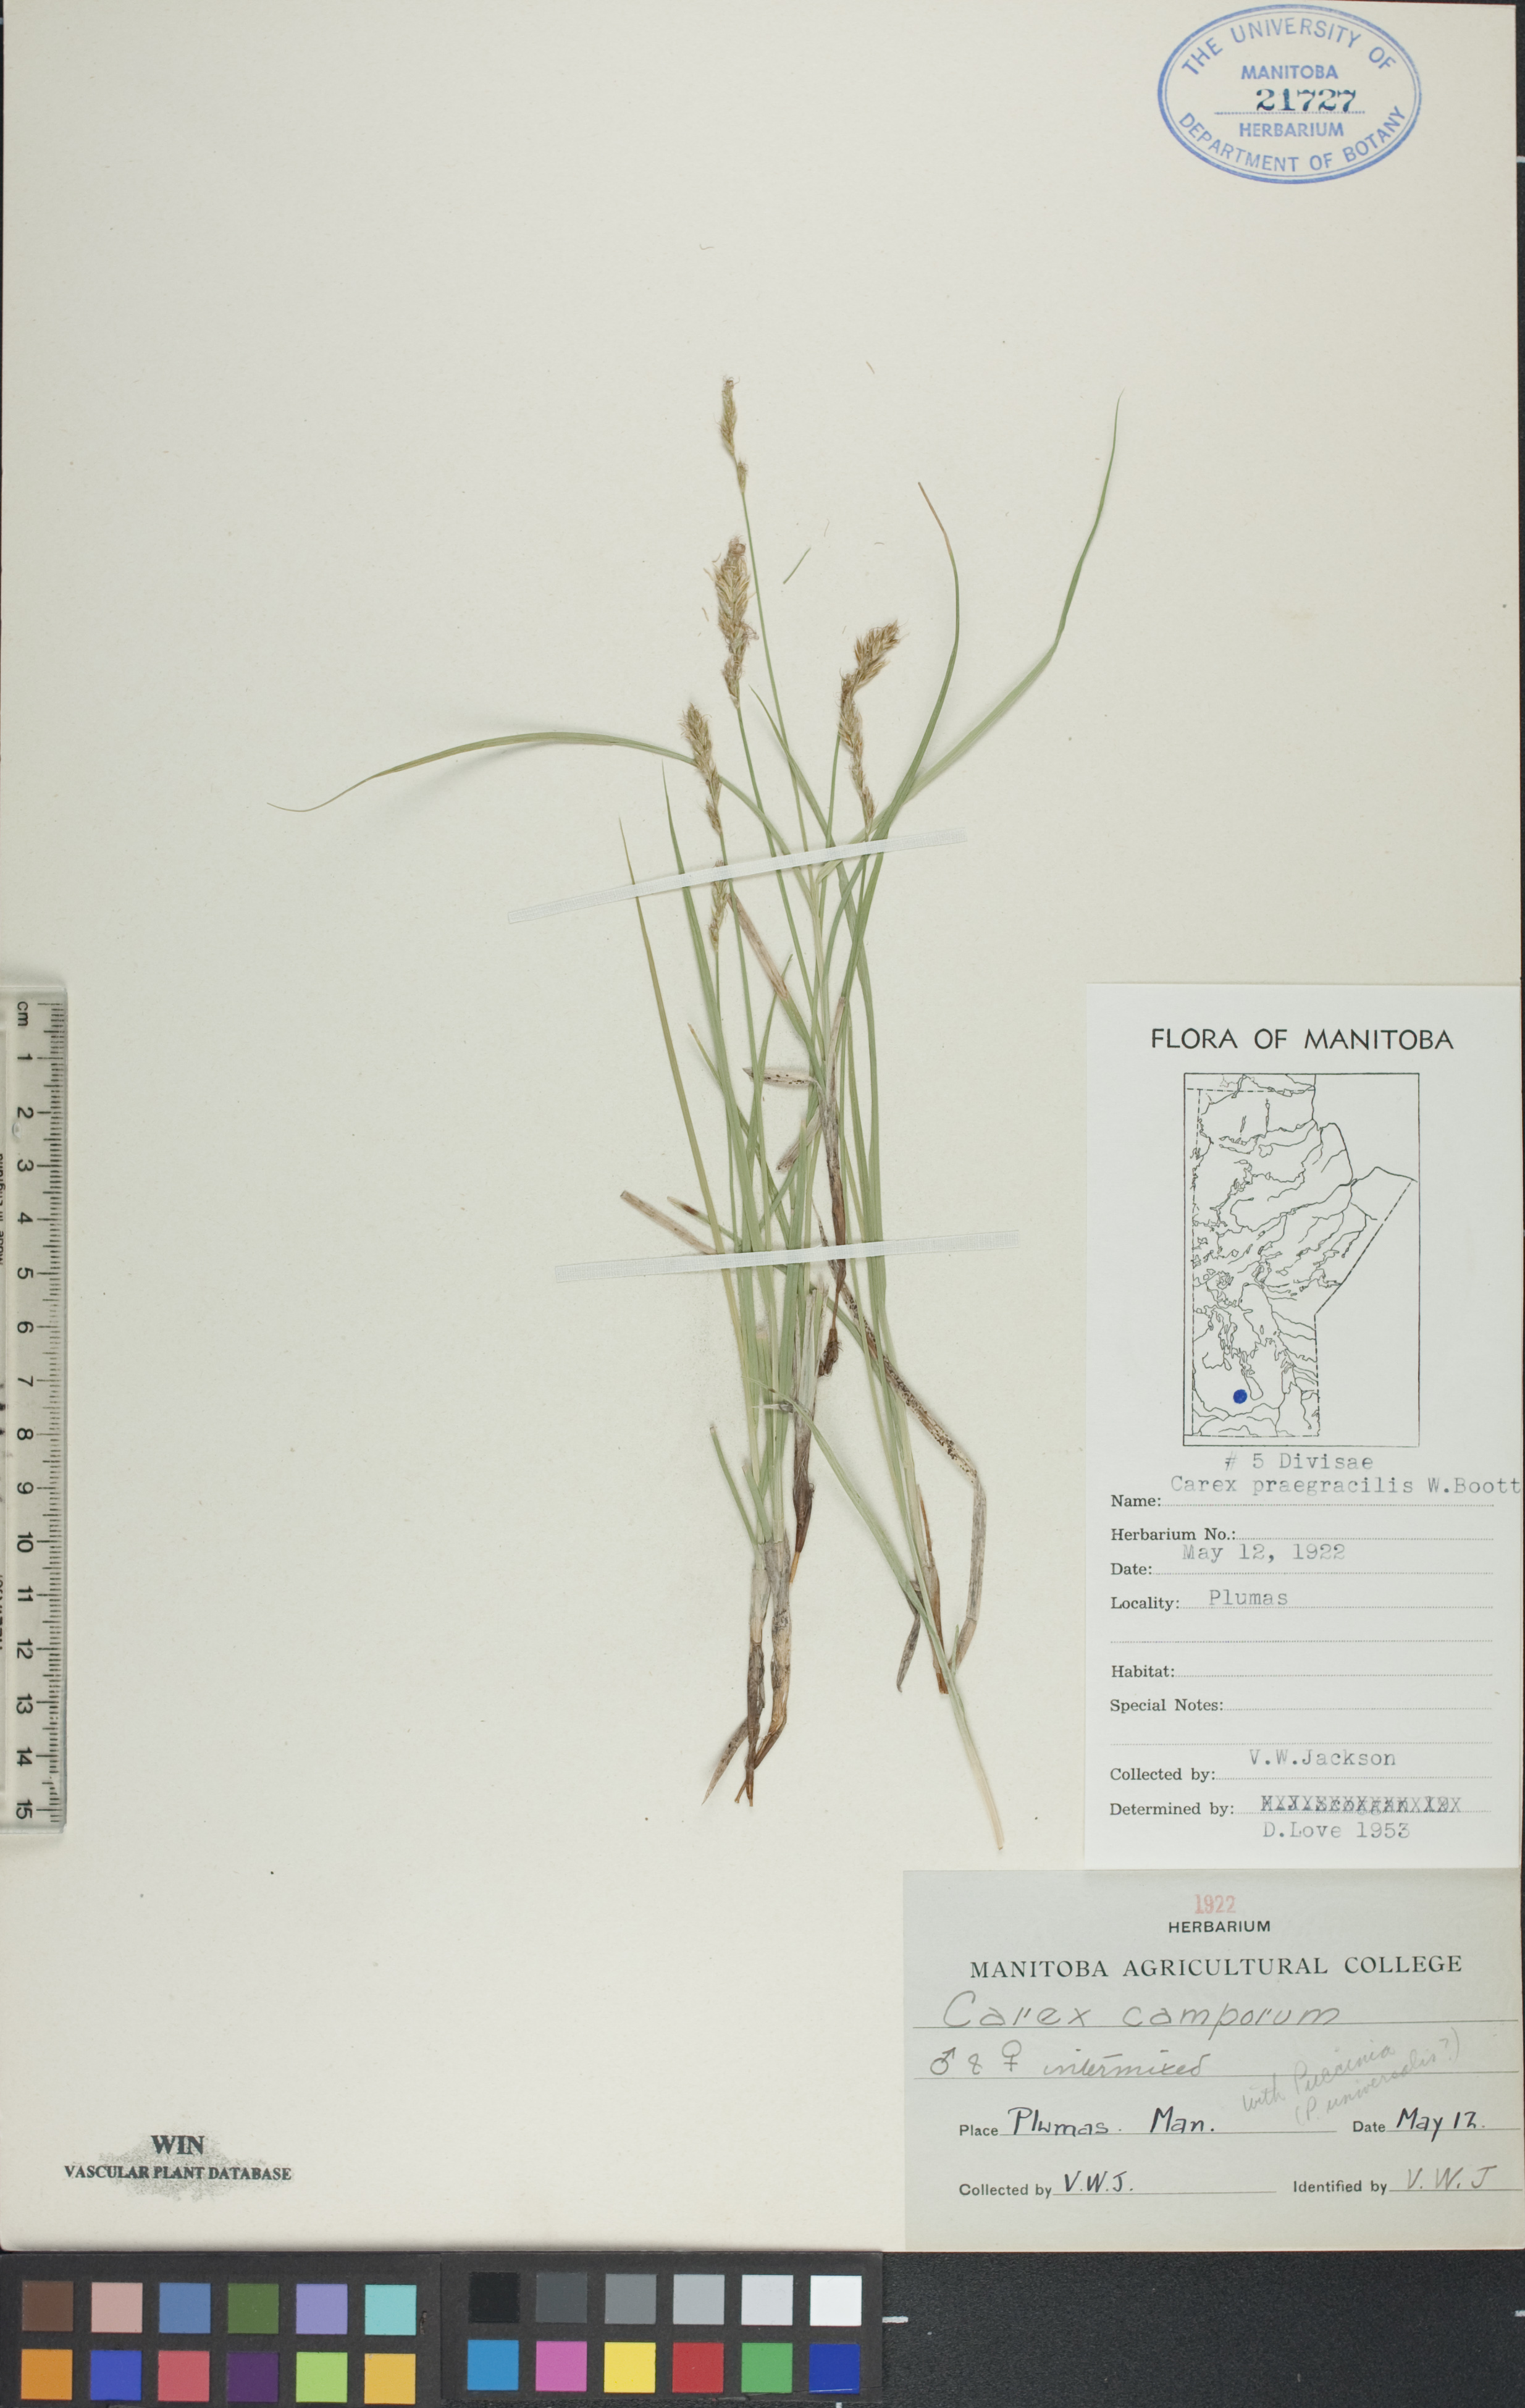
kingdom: Plantae
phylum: Tracheophyta
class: Liliopsida
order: Poales
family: Cyperaceae
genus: Carex
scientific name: Carex praegracilis
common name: Black creeper sedge
